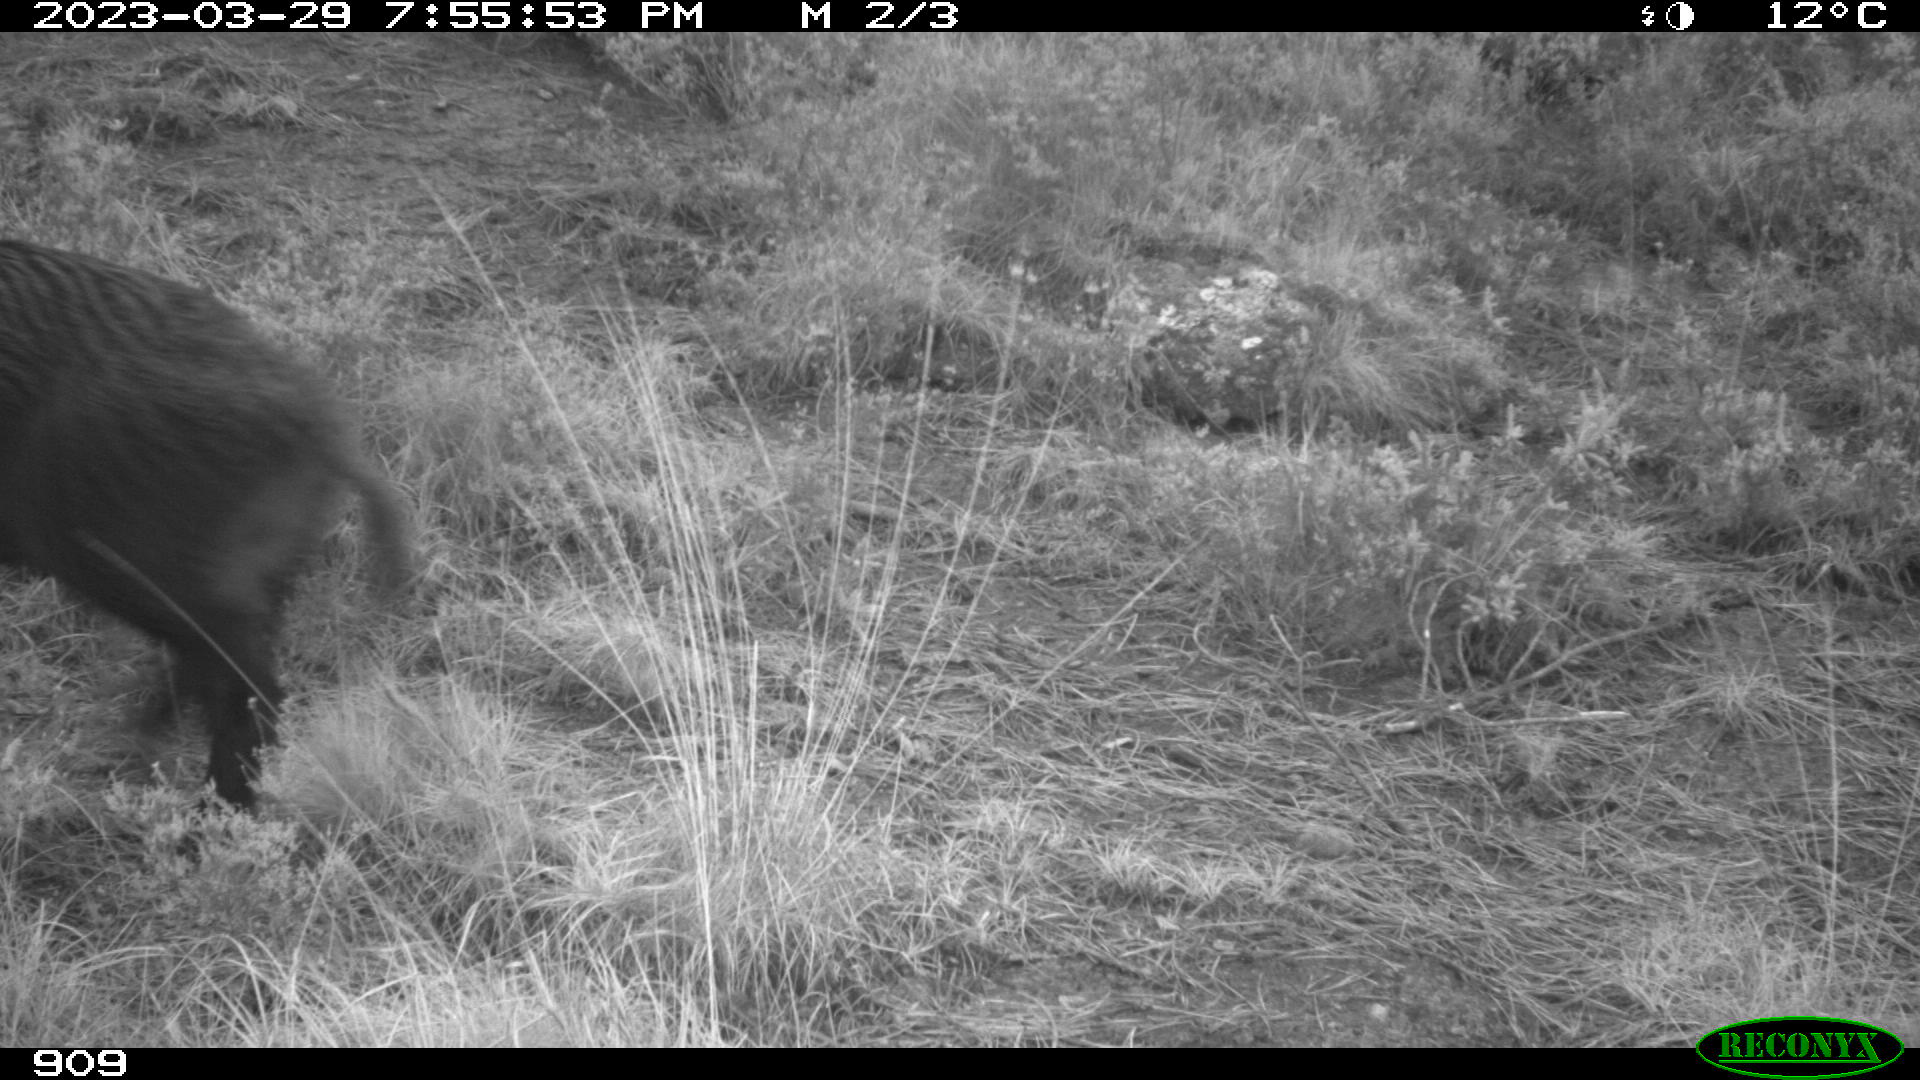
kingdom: Animalia
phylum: Chordata
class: Mammalia
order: Artiodactyla
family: Suidae
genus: Sus
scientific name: Sus scrofa
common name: Wild boar
